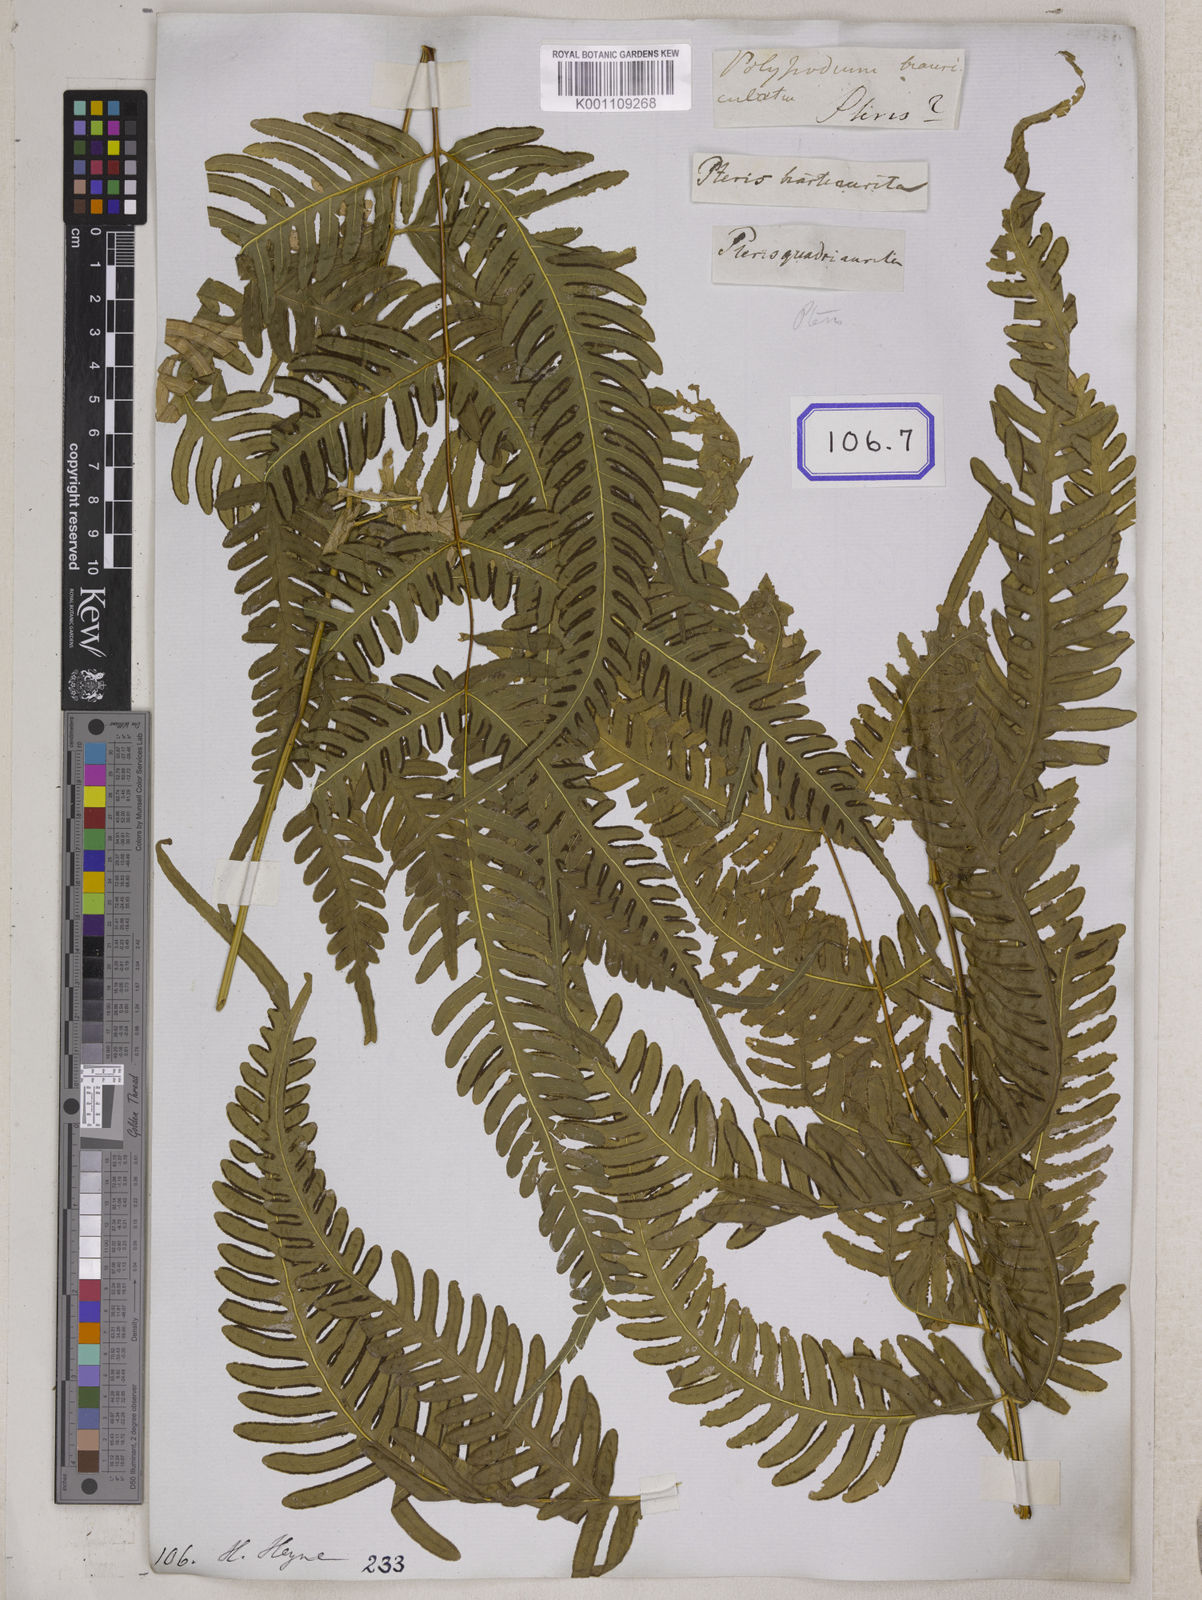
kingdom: Plantae
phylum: Tracheophyta
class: Polypodiopsida
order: Polypodiales
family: Pteridaceae
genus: Pteris
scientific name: Pteris linearis
